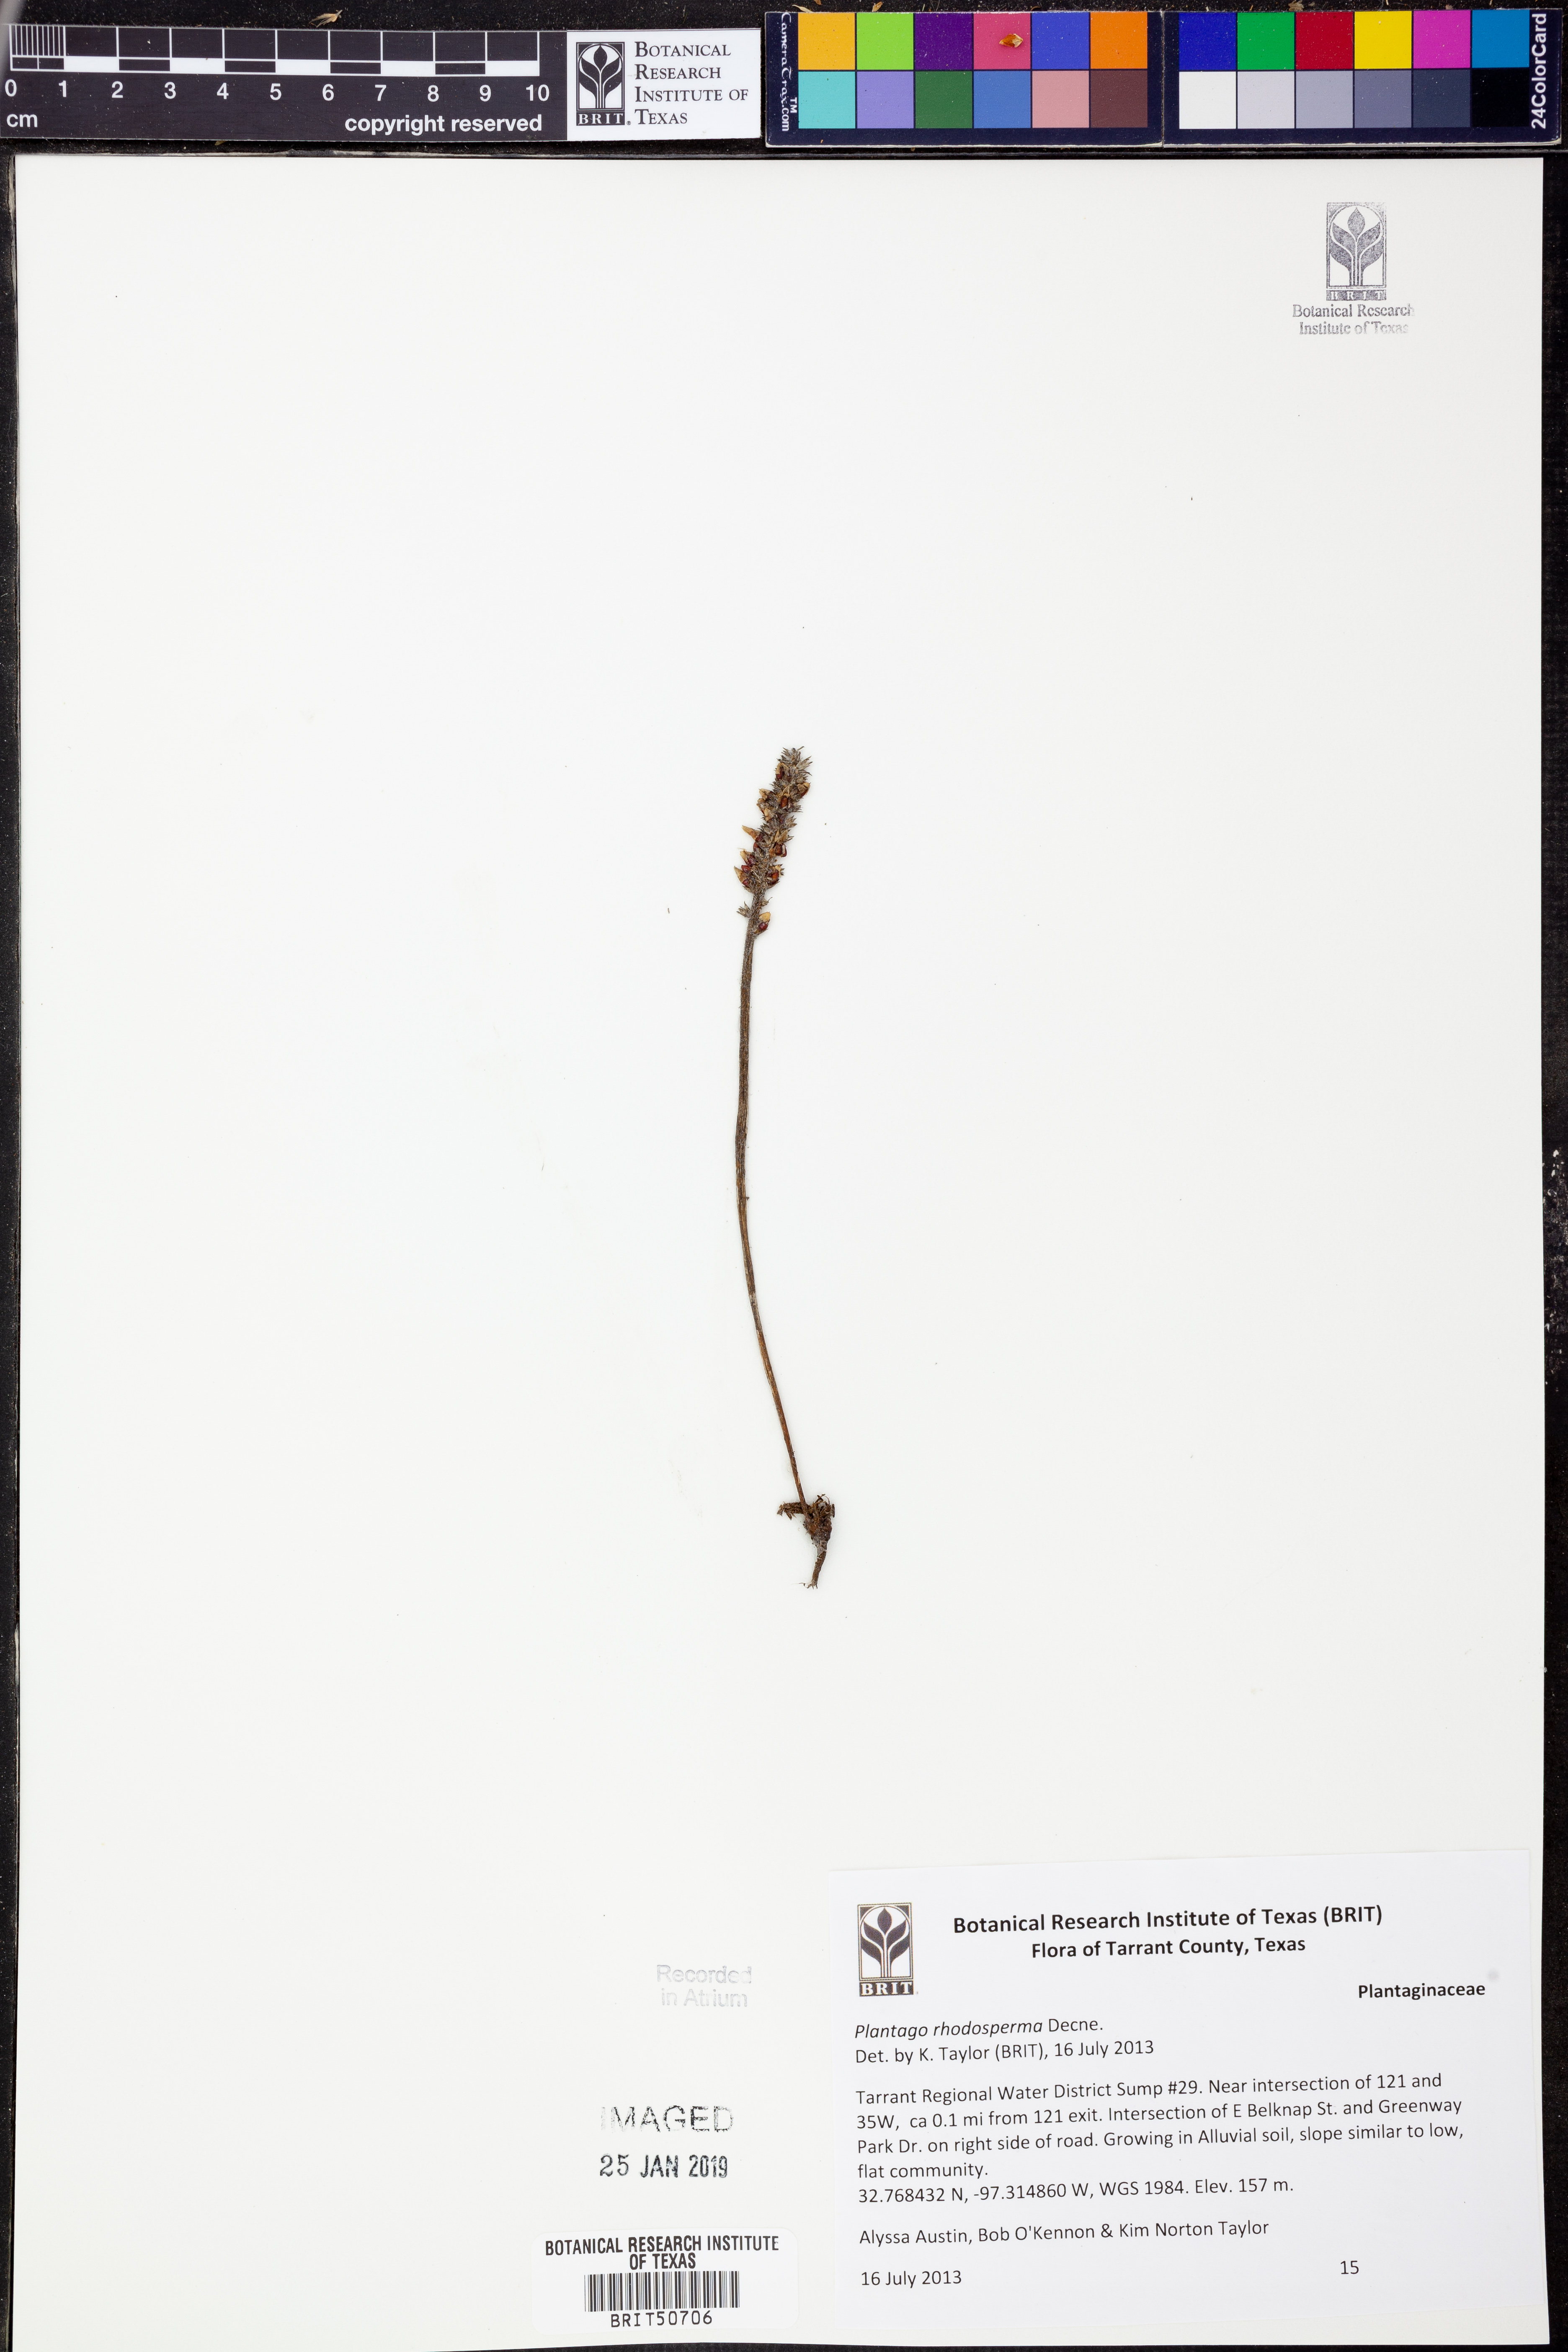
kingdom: Plantae
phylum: Tracheophyta
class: Magnoliopsida
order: Lamiales
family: Plantaginaceae
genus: Plantago
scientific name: Plantago rhodosperma
